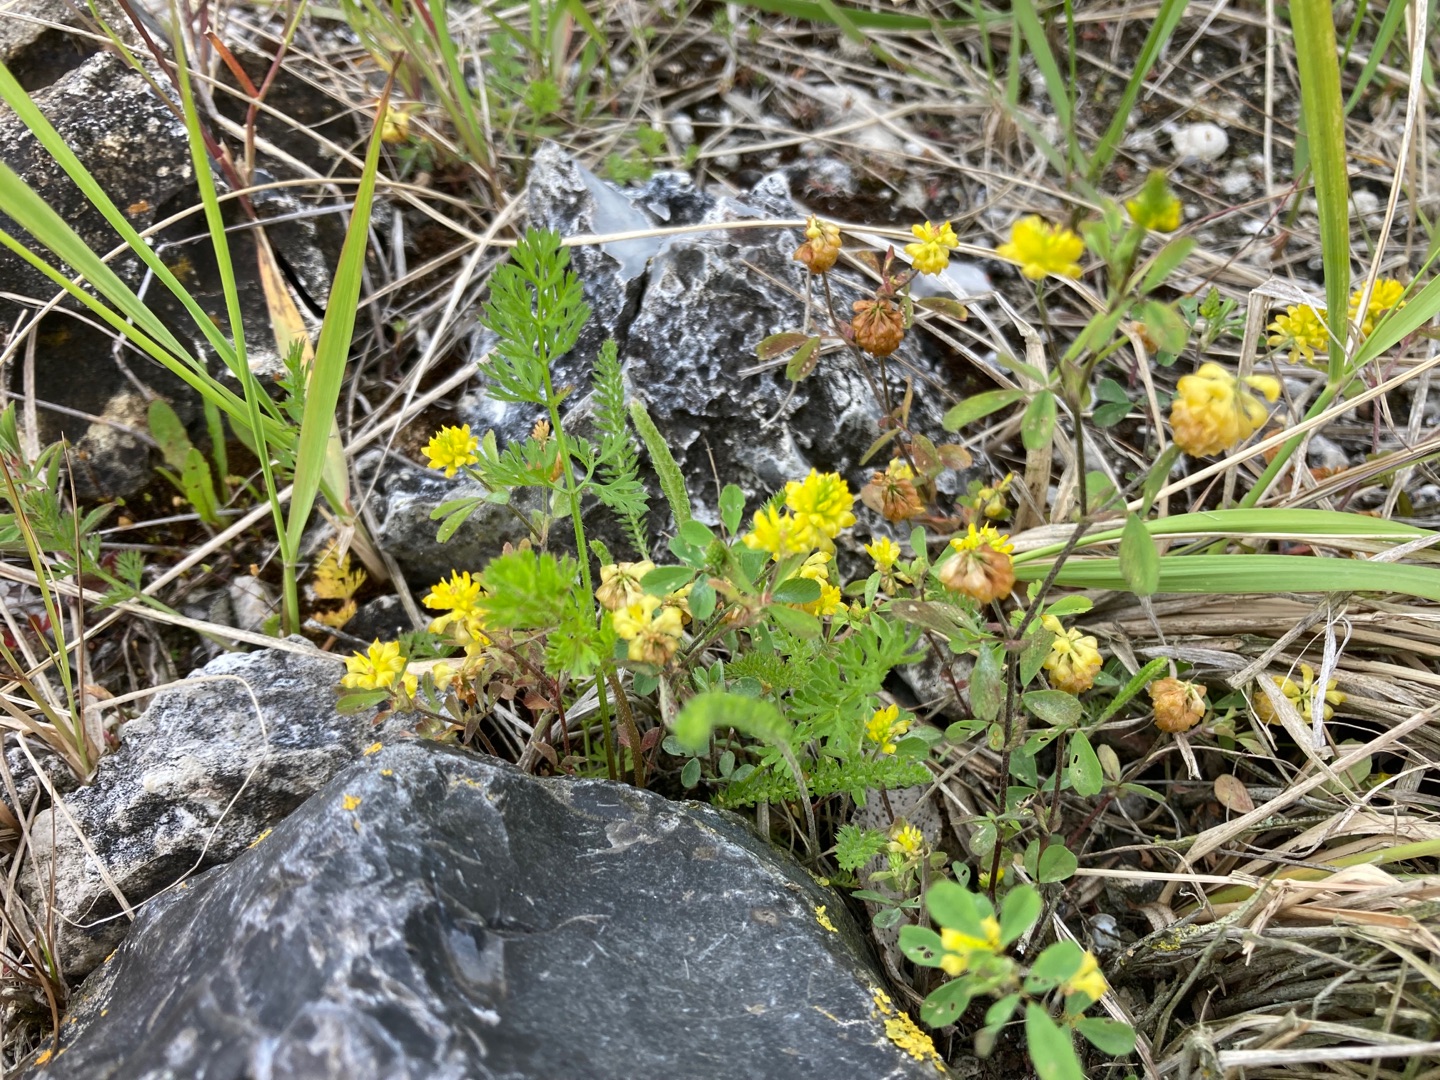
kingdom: Plantae
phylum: Tracheophyta
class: Magnoliopsida
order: Fabales
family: Fabaceae
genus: Trifolium
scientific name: Trifolium campestre
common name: Gul kløver
